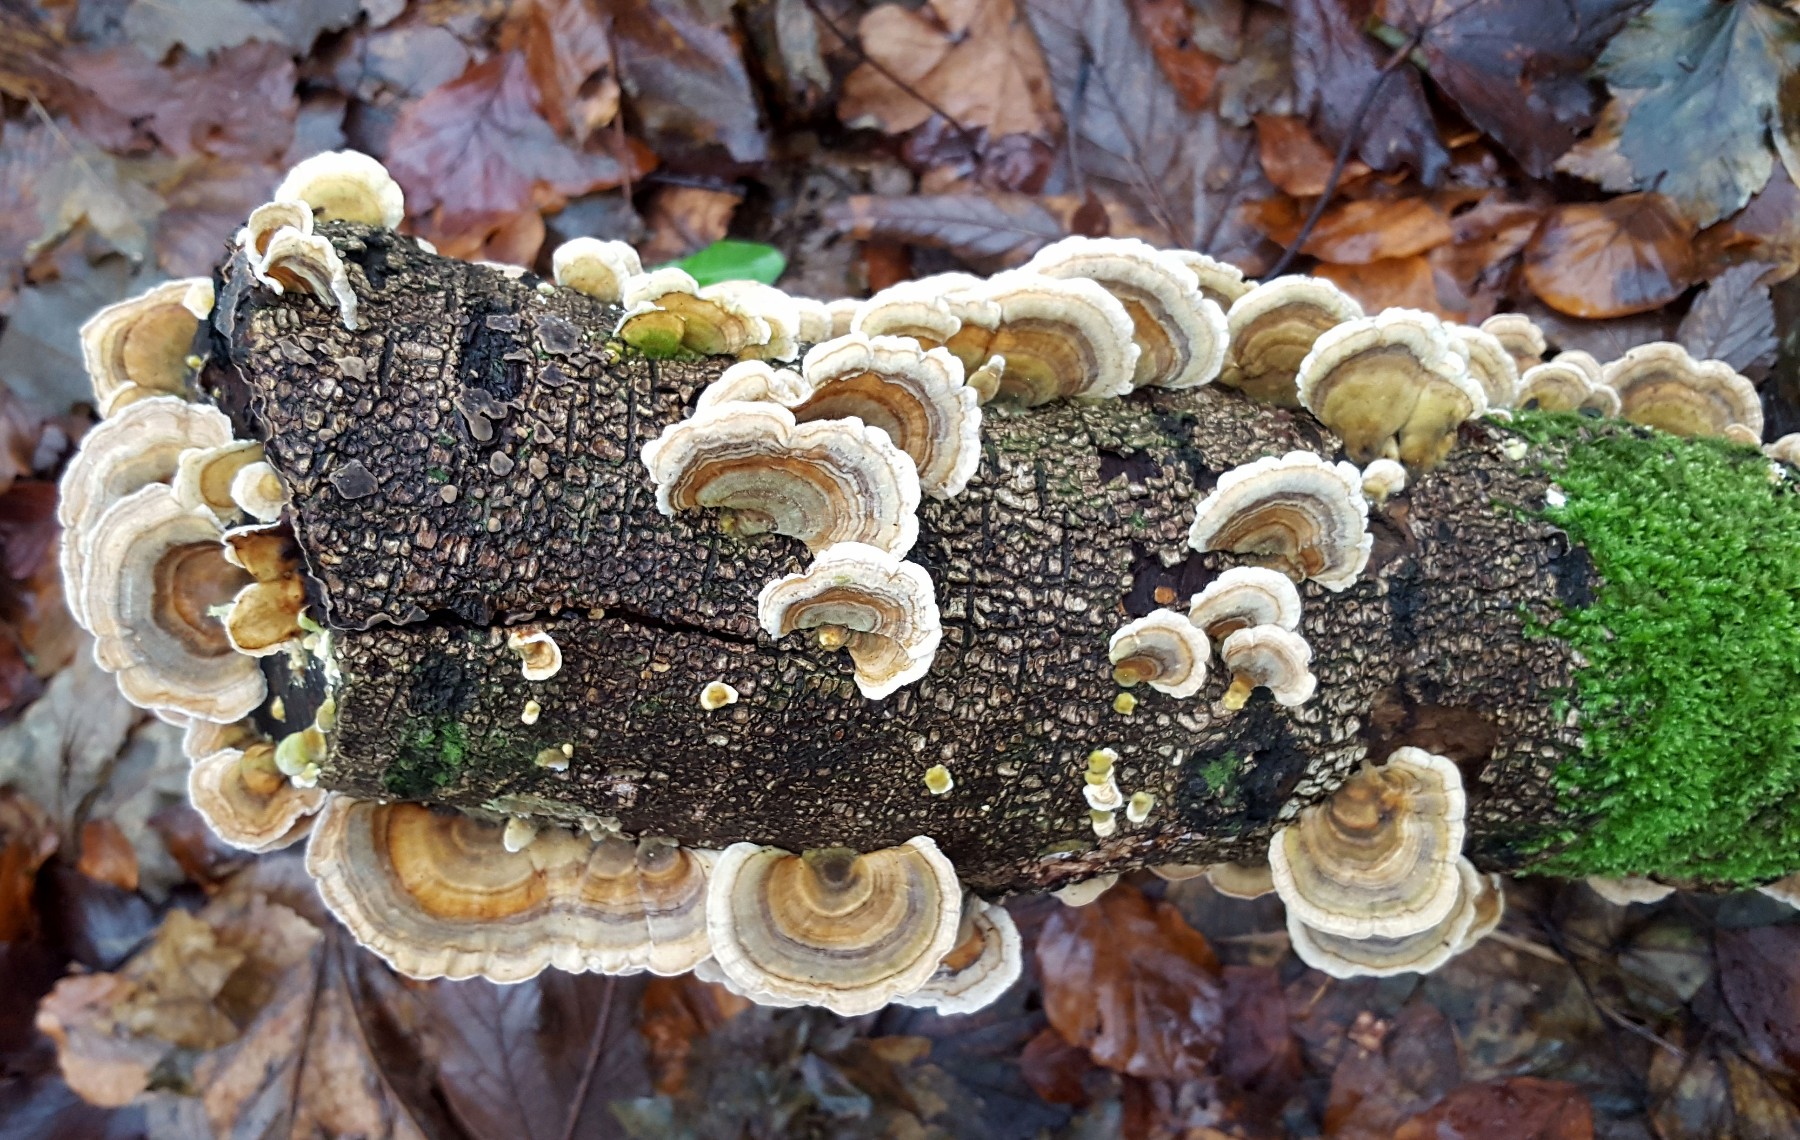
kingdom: Fungi
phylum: Basidiomycota
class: Agaricomycetes
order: Polyporales
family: Polyporaceae
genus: Trametes
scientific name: Trametes versicolor
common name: broget læderporesvamp
